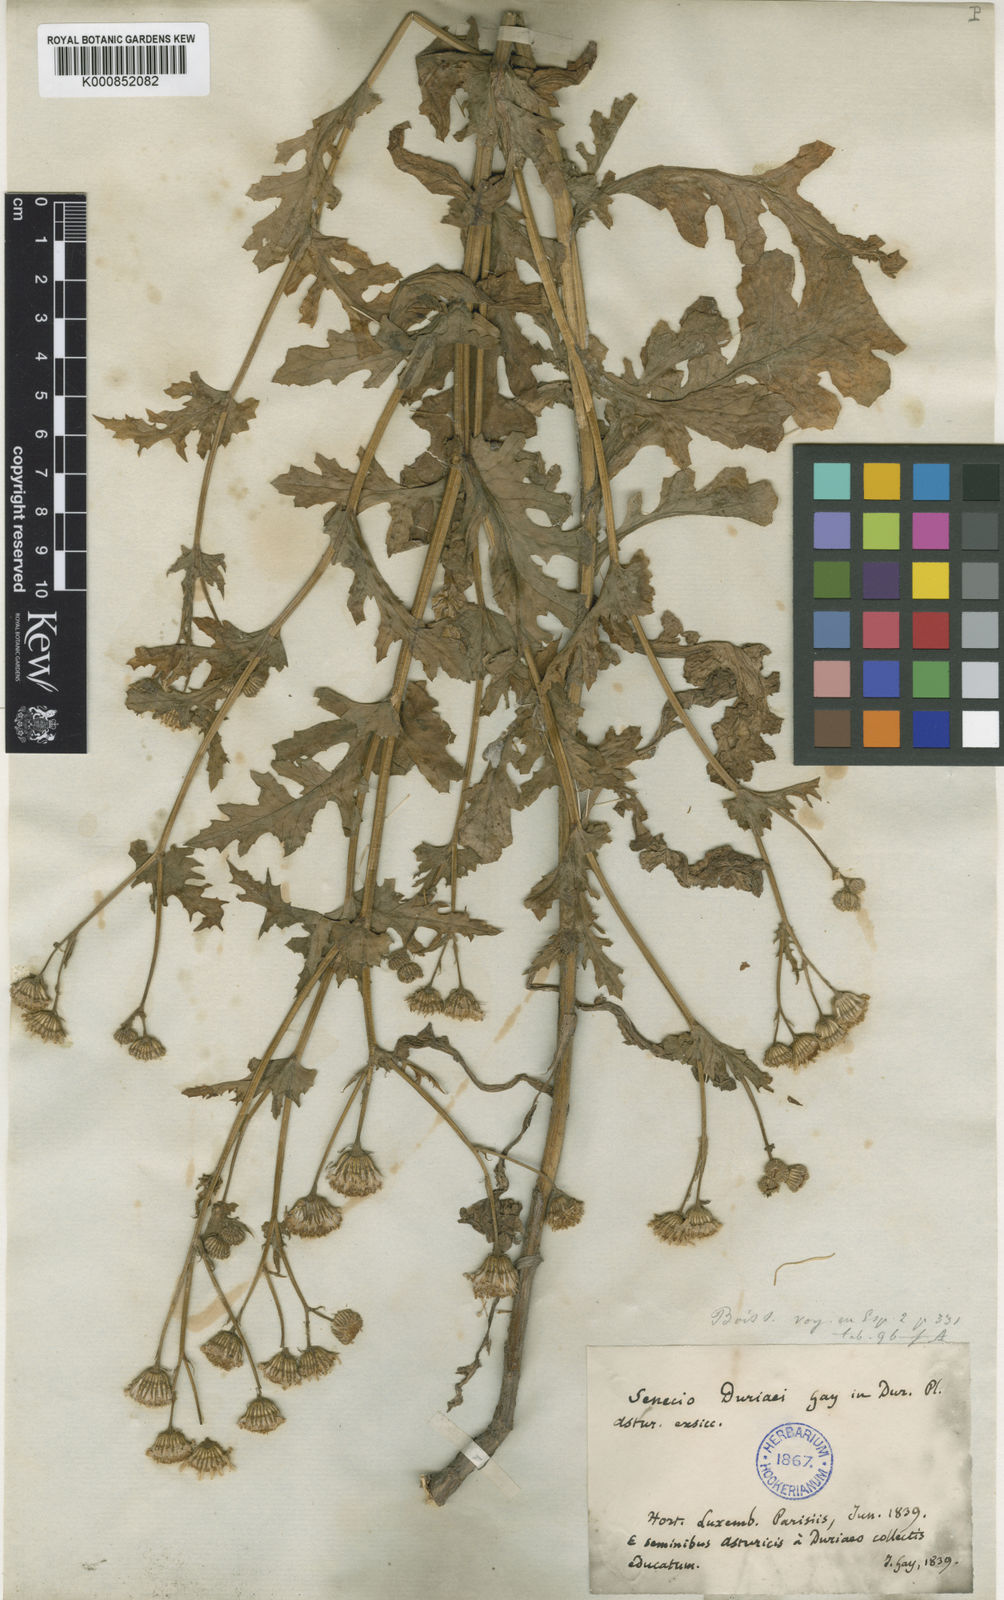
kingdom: Plantae
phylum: Tracheophyta
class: Magnoliopsida
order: Asterales
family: Asteraceae
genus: Senecio
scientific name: Senecio duriaei
